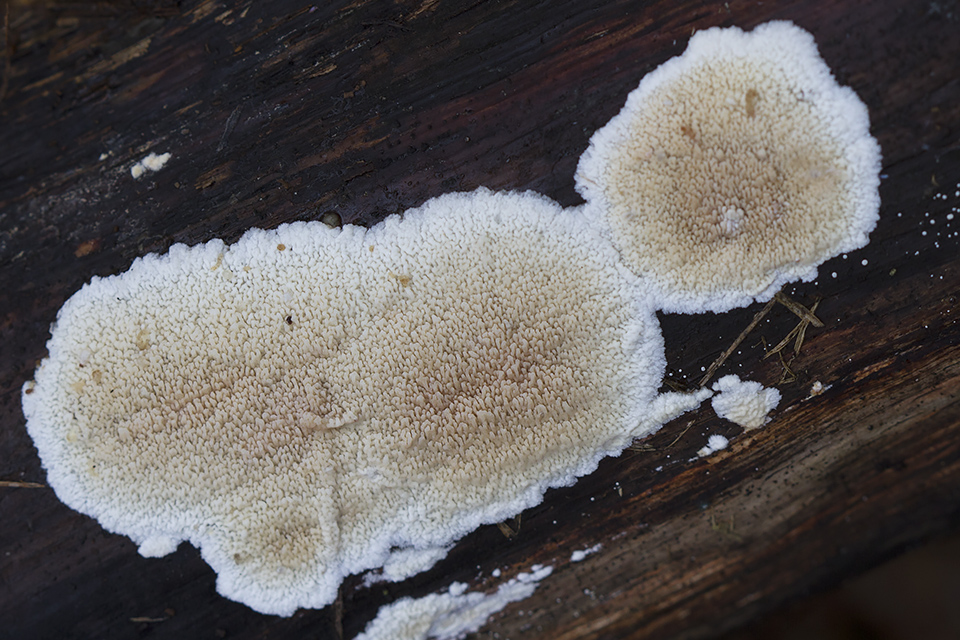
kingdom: Fungi
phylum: Basidiomycota
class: Agaricomycetes
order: Polyporales
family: Irpicaceae
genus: Crystallicutis
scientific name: Crystallicutis serpens
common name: gråviolet barkhinde
